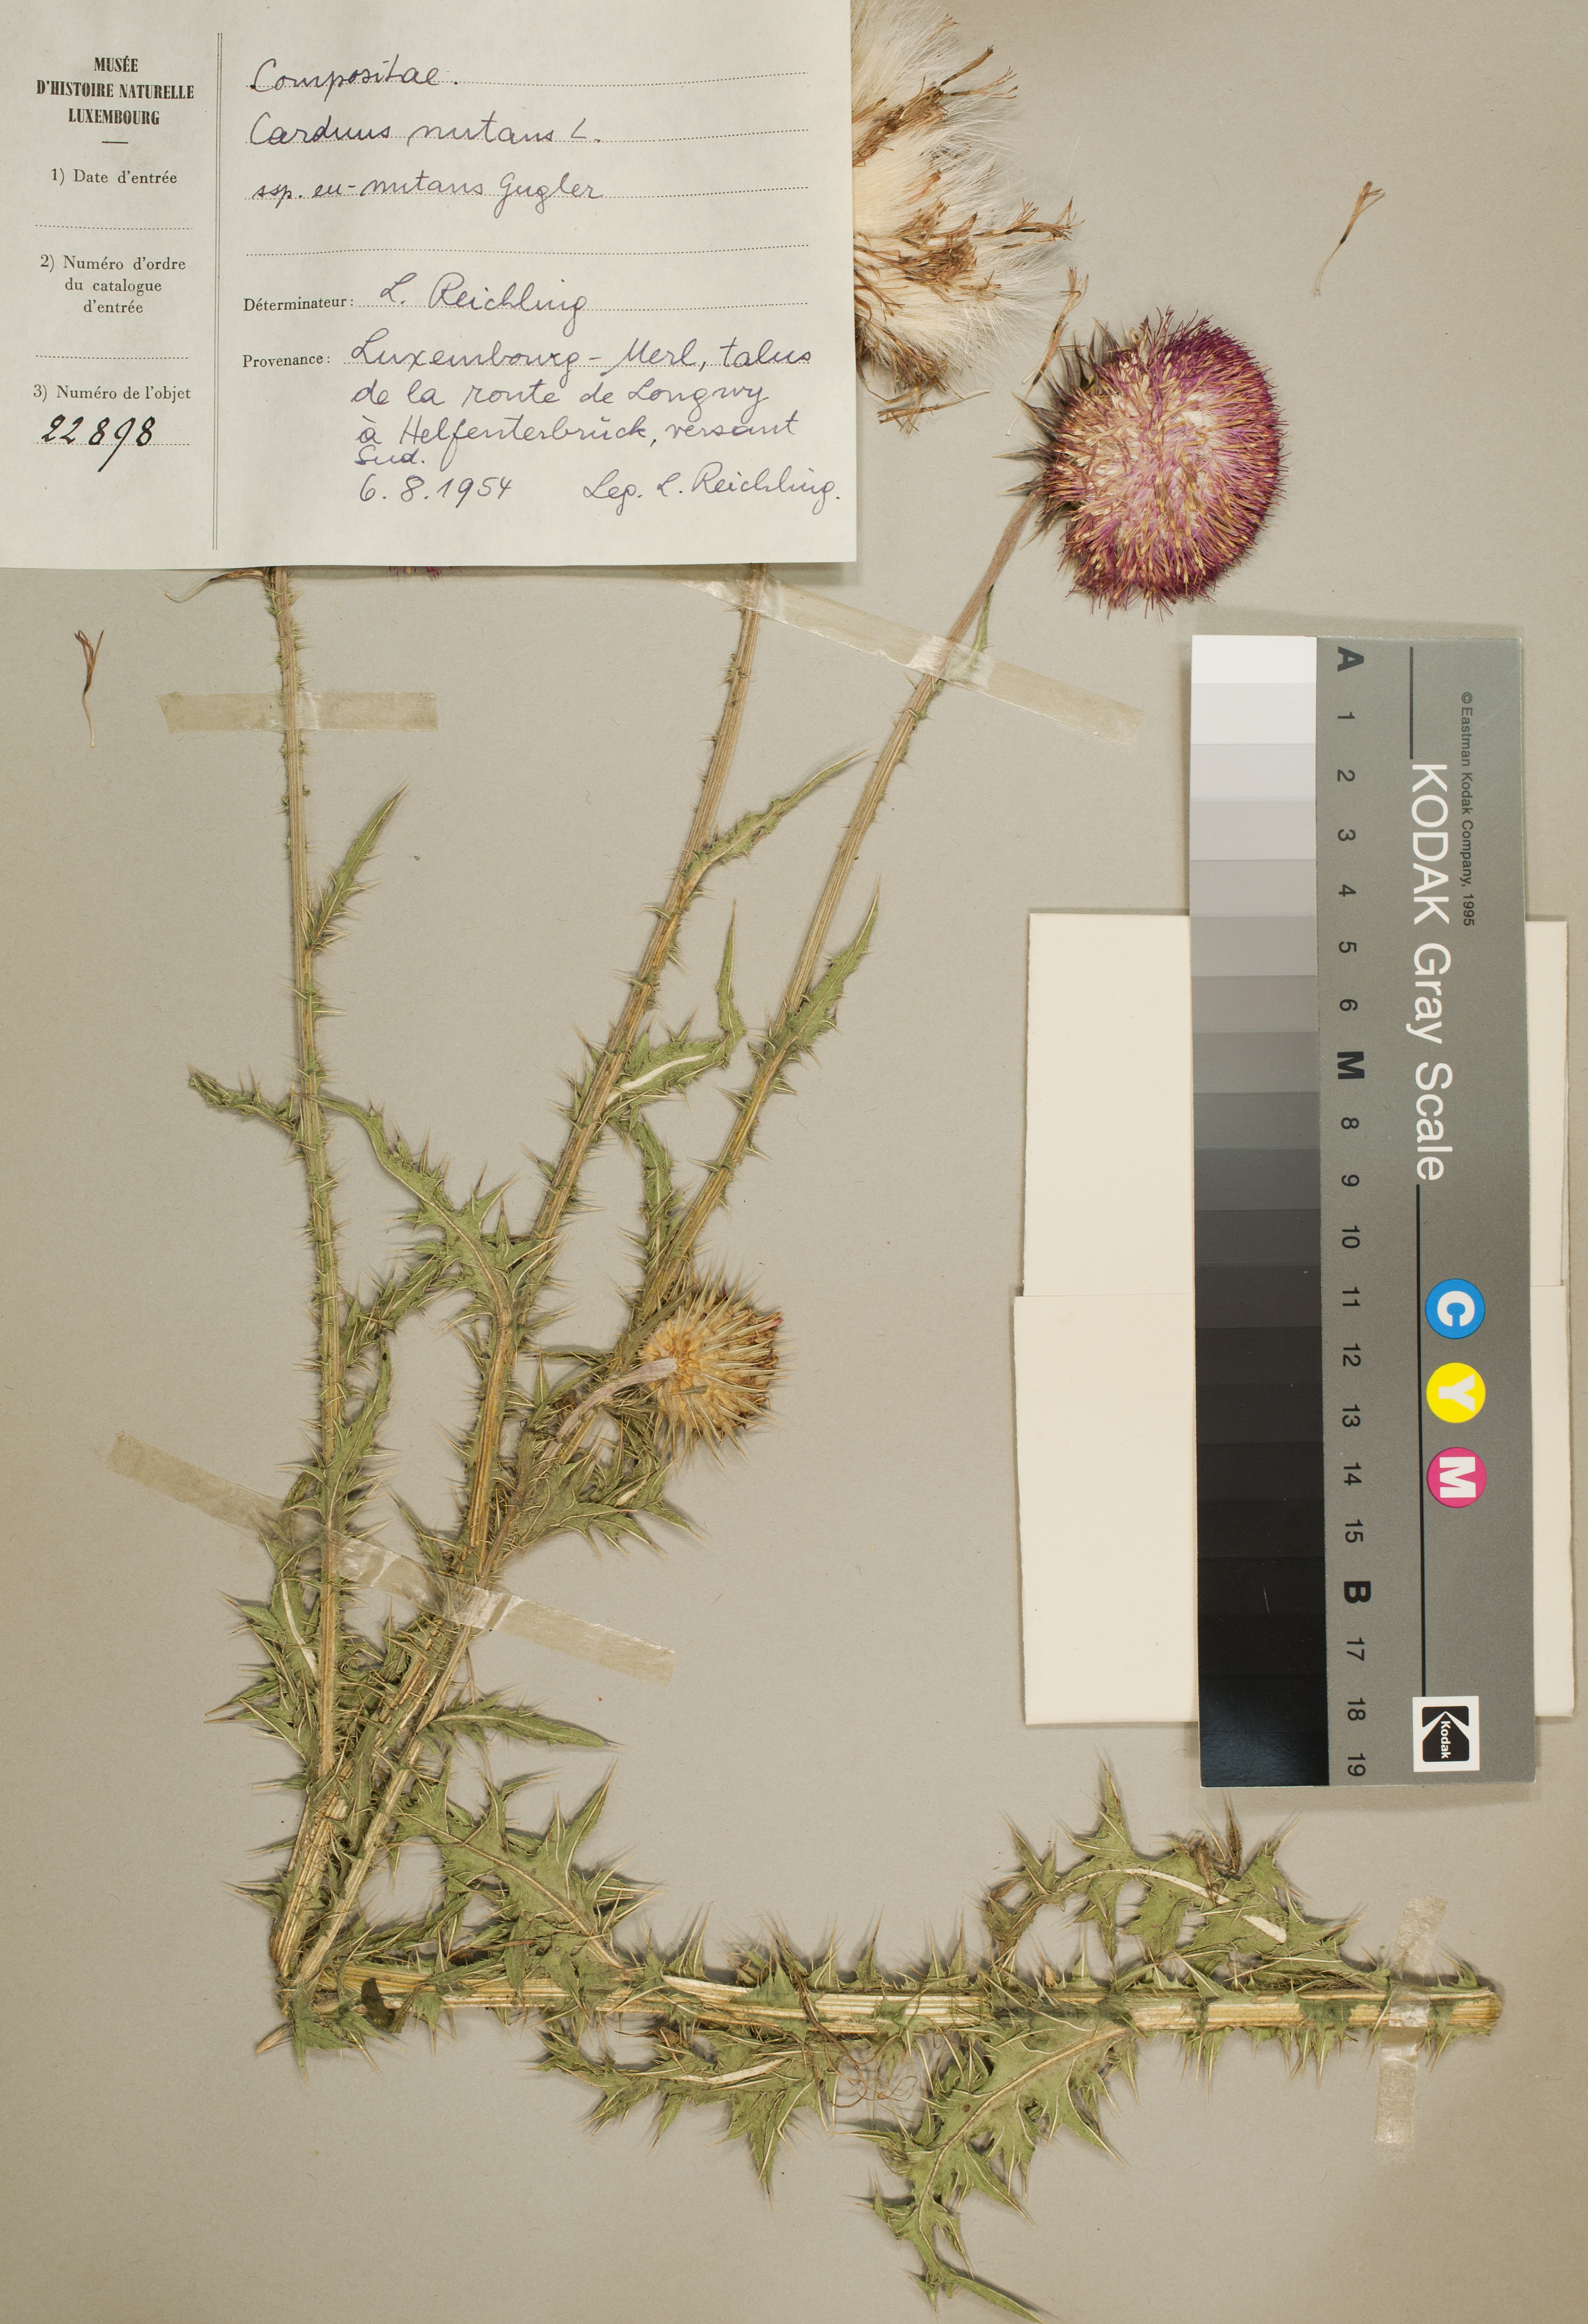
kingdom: Plantae
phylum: Tracheophyta
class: Magnoliopsida
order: Asterales
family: Asteraceae
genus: Carduus
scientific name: Carduus nutans
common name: Musk thistle
